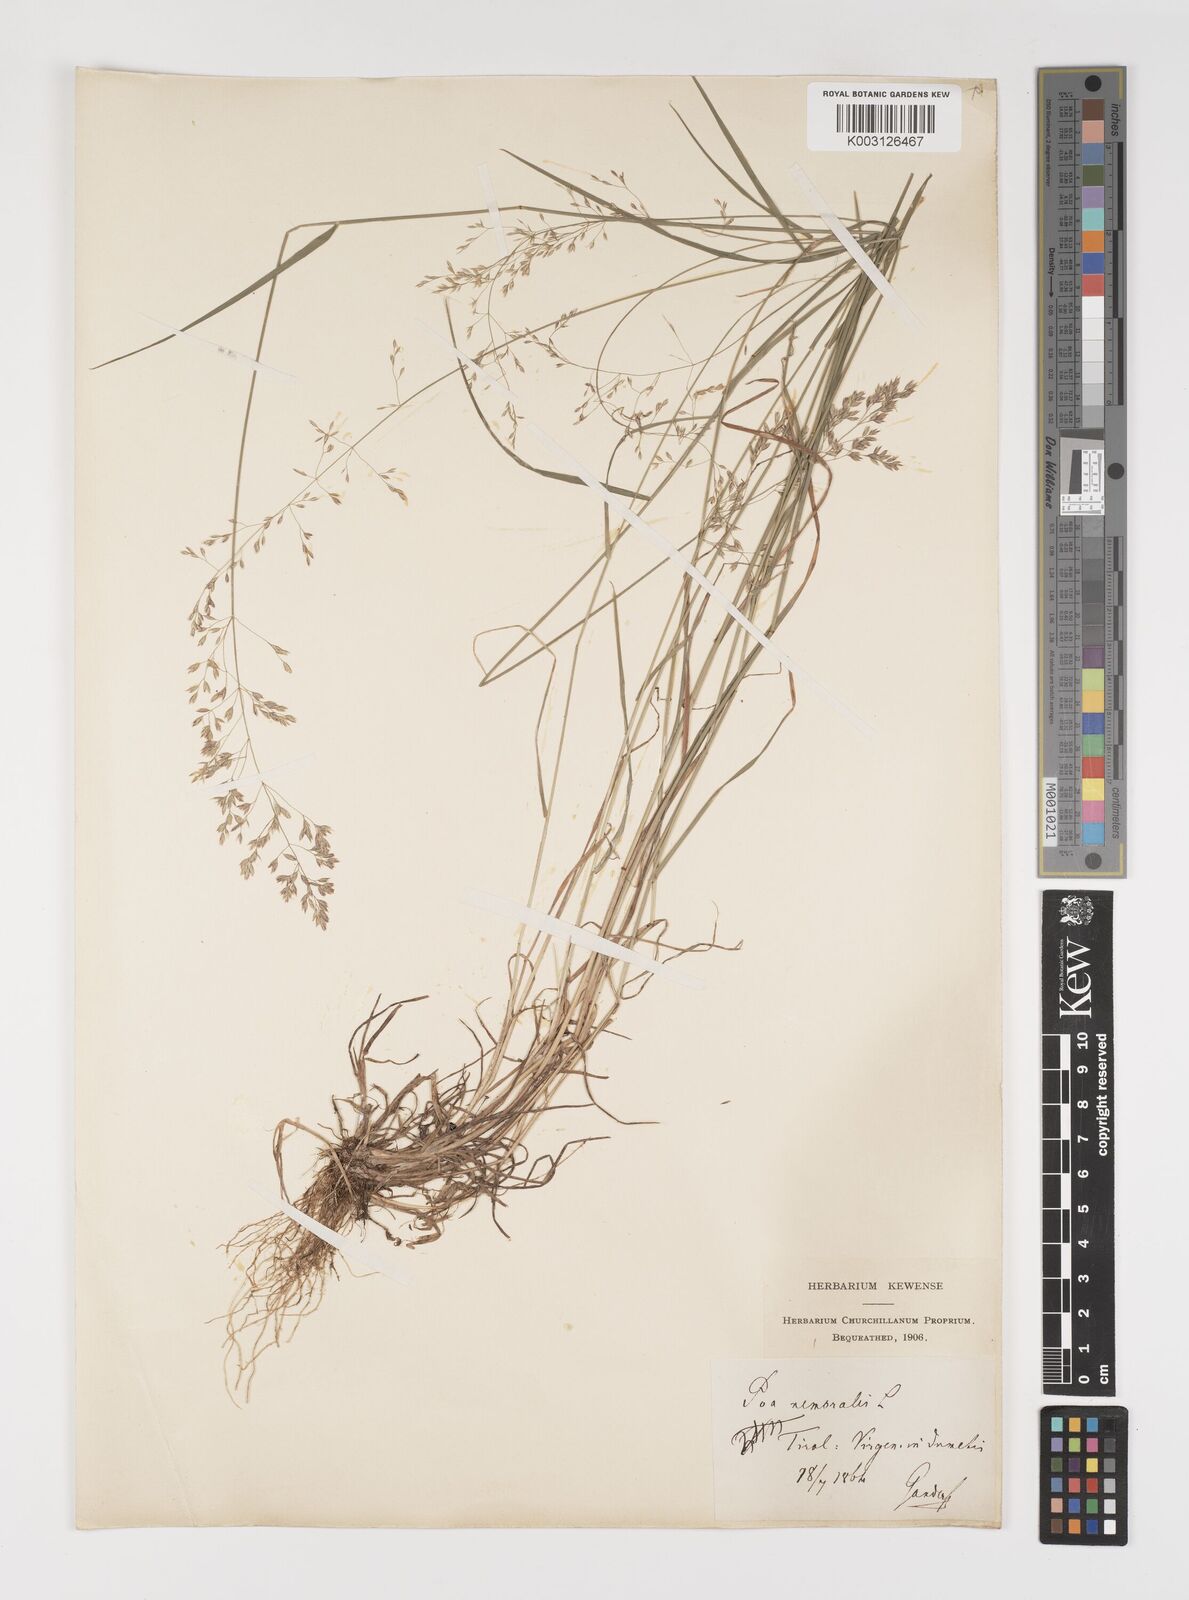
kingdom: Plantae
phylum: Tracheophyta
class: Liliopsida
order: Poales
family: Poaceae
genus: Poa
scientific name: Poa nemoralis
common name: Wood bluegrass
